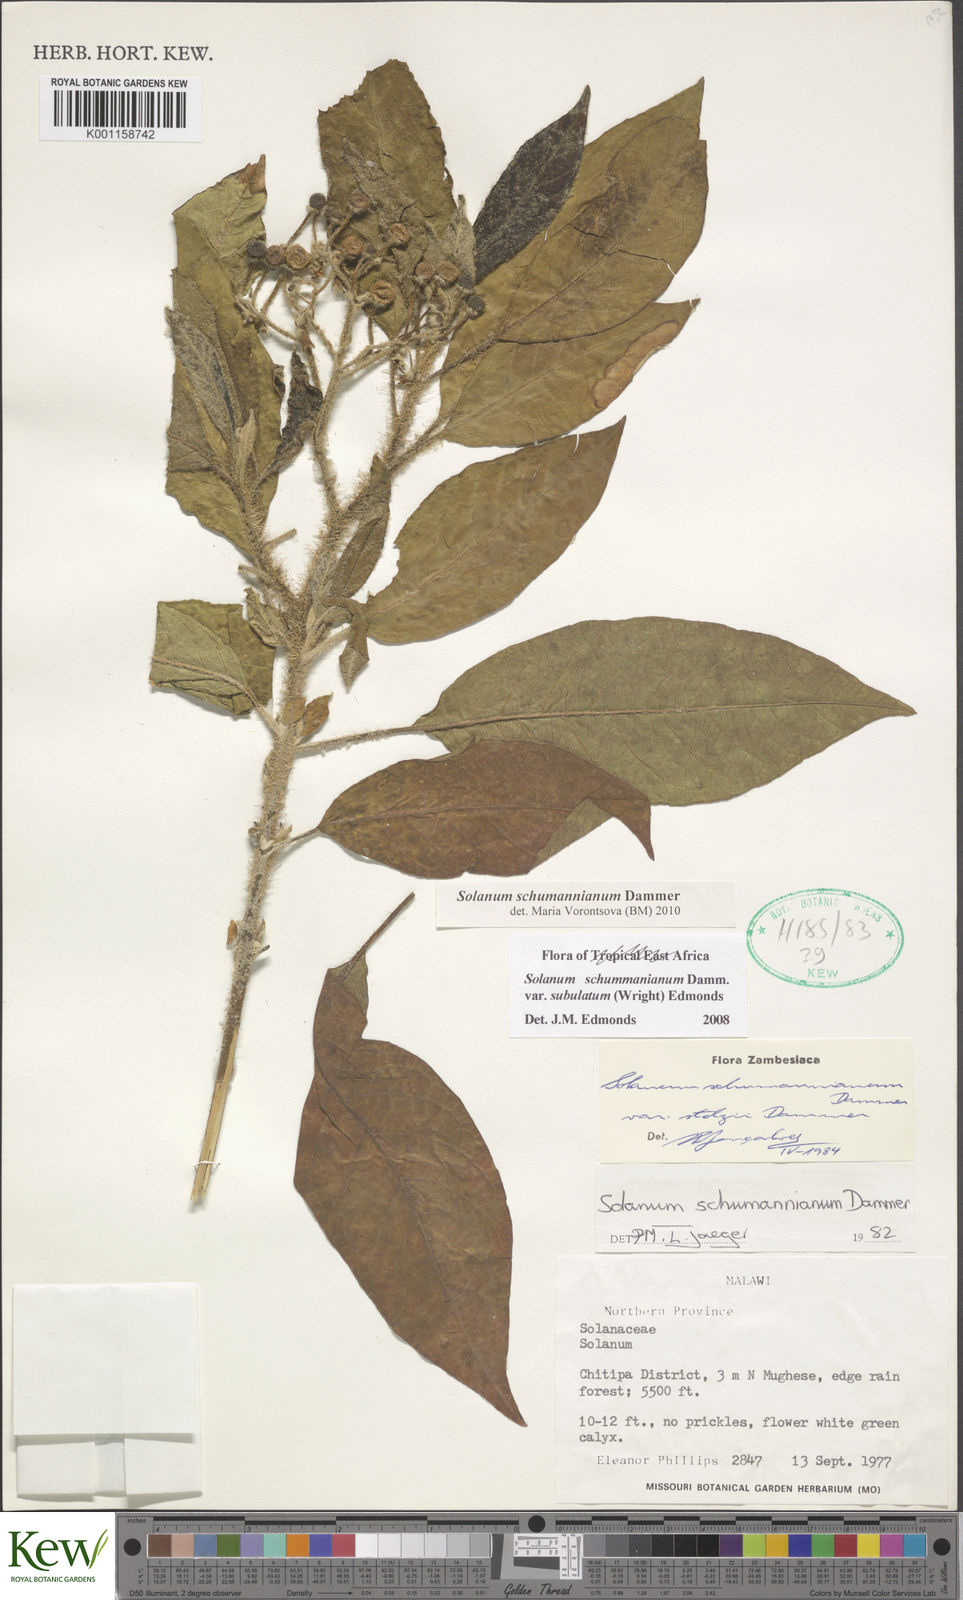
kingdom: Plantae
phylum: Tracheophyta
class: Magnoliopsida
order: Solanales
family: Solanaceae
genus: Solanum
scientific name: Solanum schumannianum
